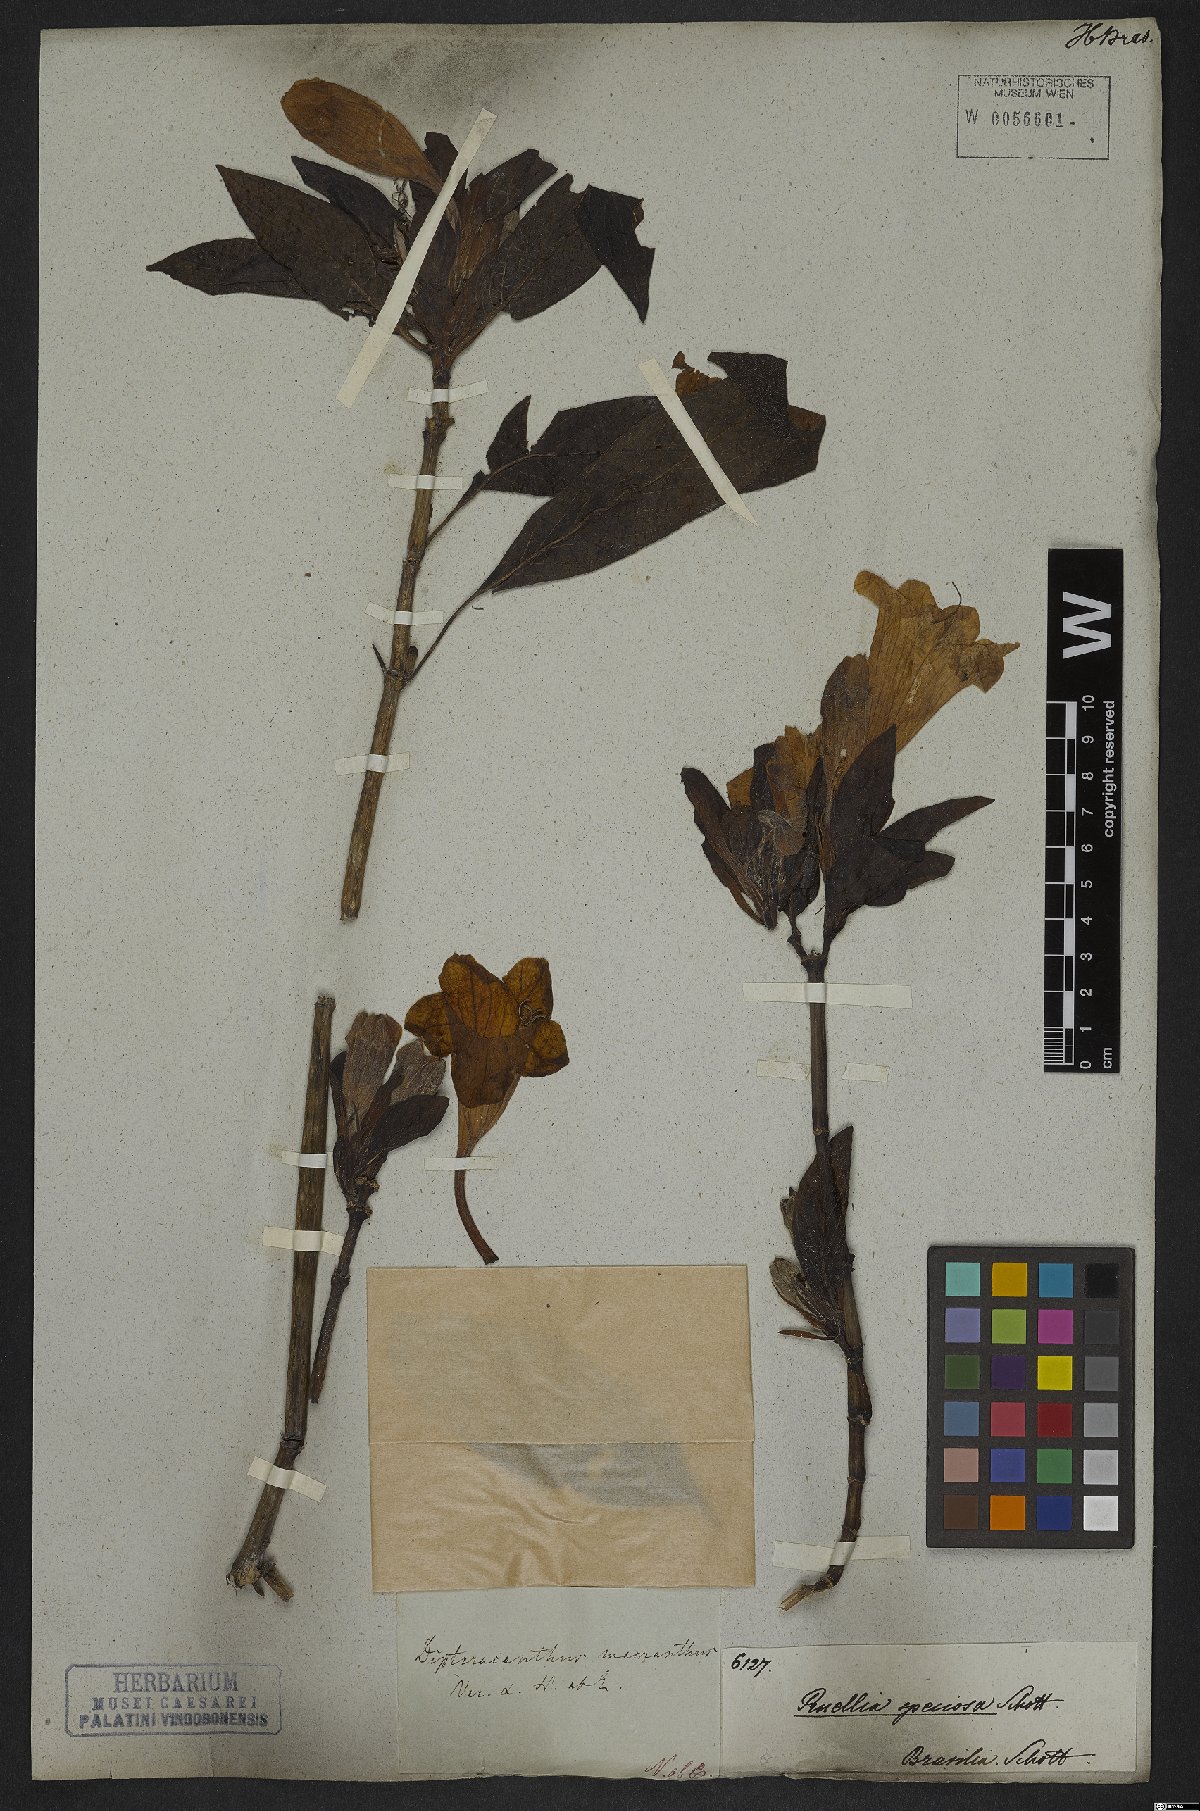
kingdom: Plantae
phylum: Tracheophyta
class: Magnoliopsida
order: Lamiales
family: Acanthaceae
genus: Ruellia
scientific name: Ruellia macrantha
